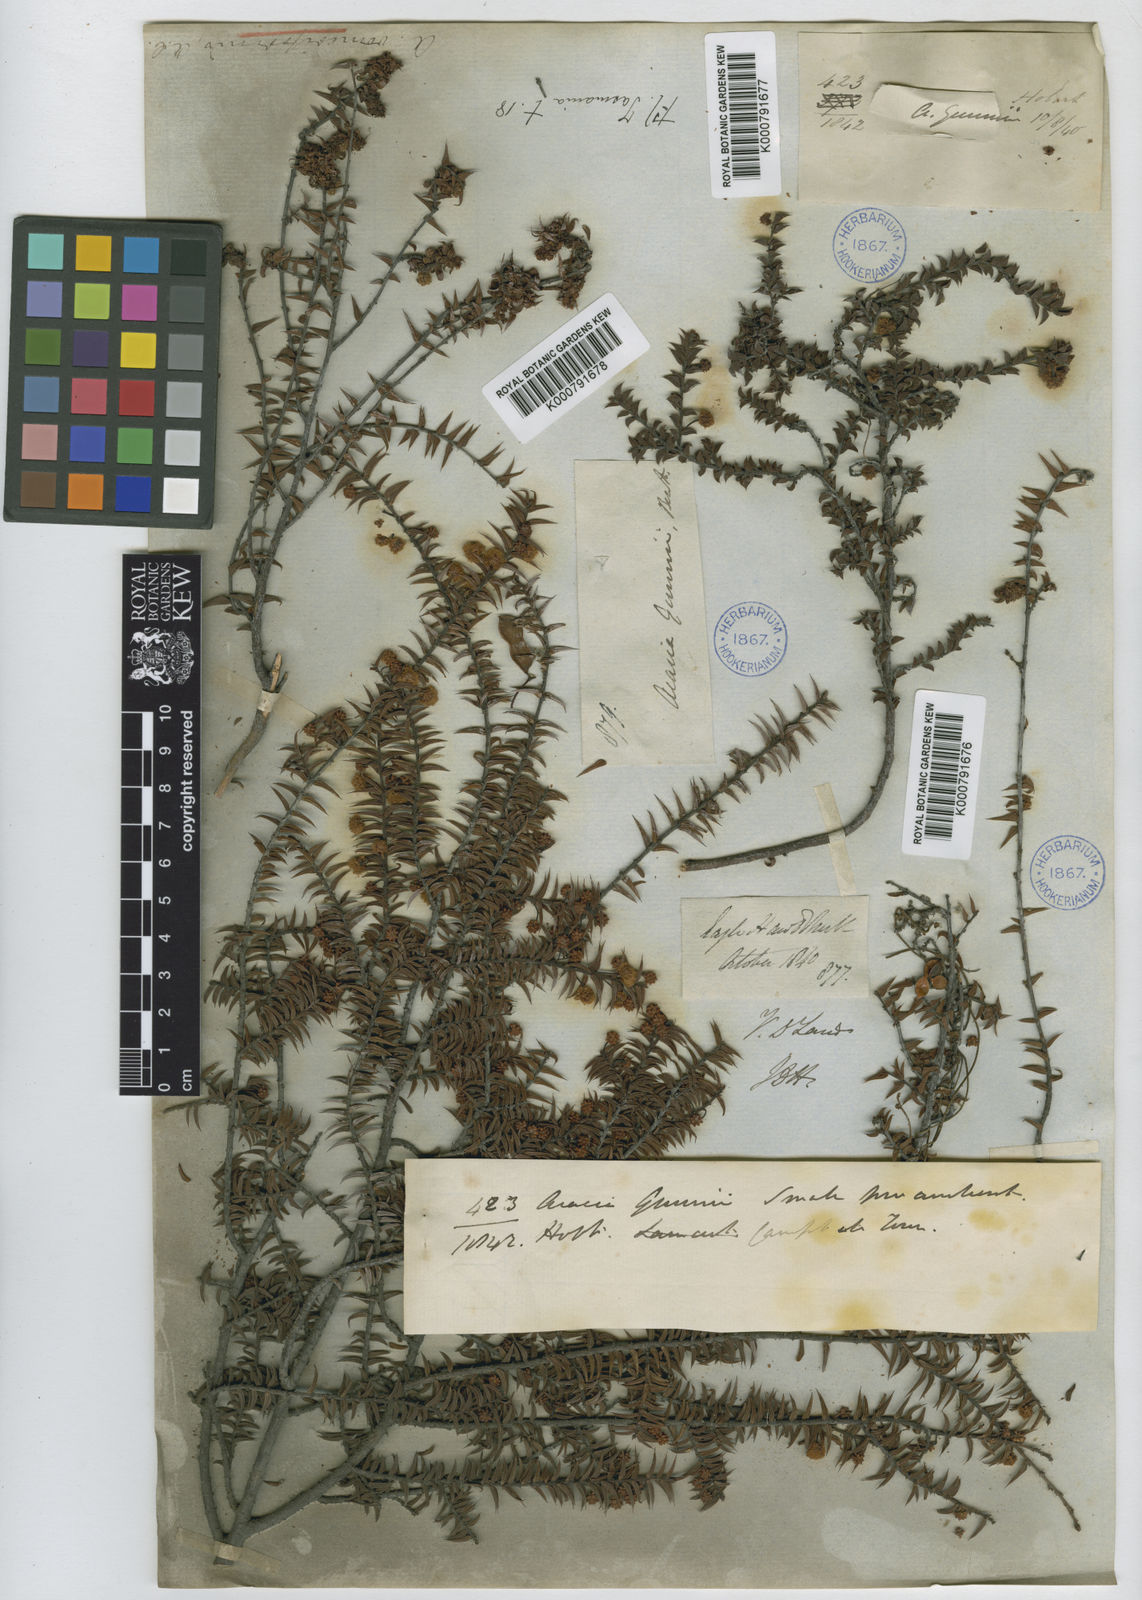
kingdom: Plantae
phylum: Tracheophyta
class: Magnoliopsida
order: Fabales
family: Fabaceae
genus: Acacia
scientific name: Acacia gunnii
